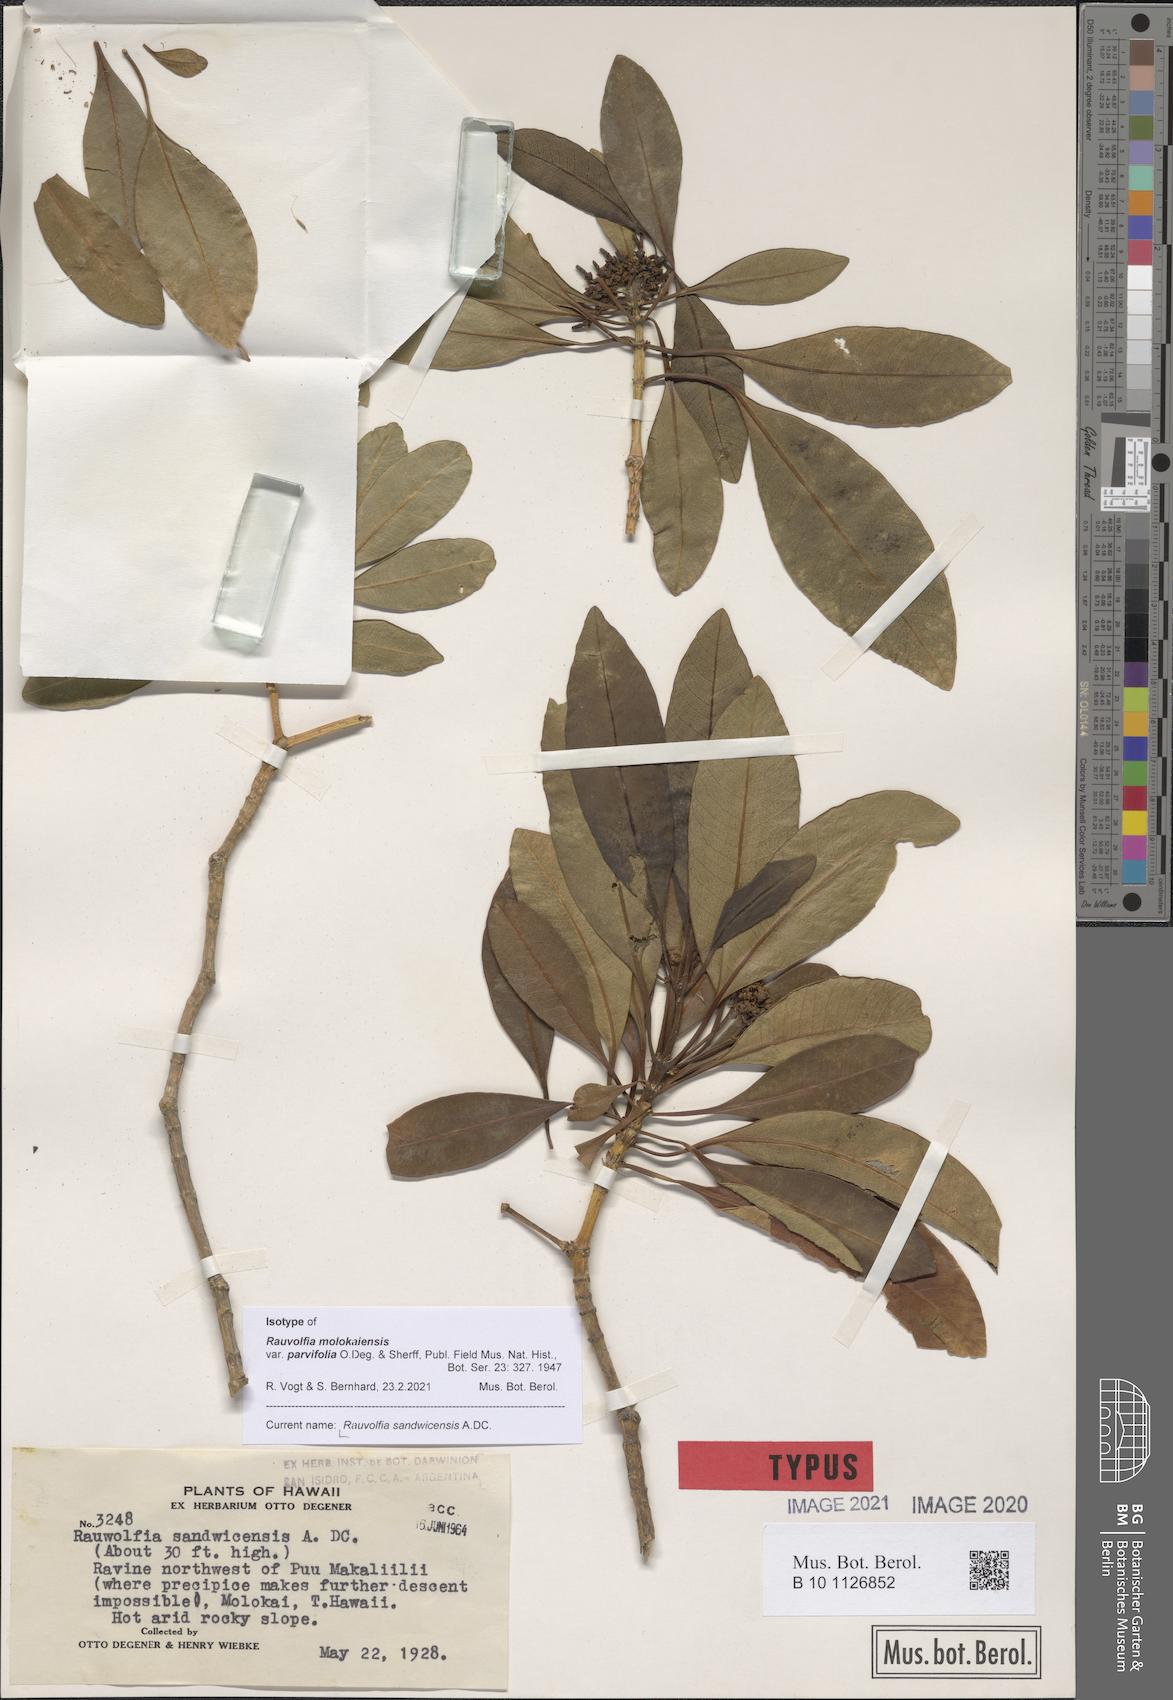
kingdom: Plantae
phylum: Tracheophyta
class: Magnoliopsida
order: Gentianales
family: Apocynaceae
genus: Rauvolfia
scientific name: Rauvolfia sandwicensis
